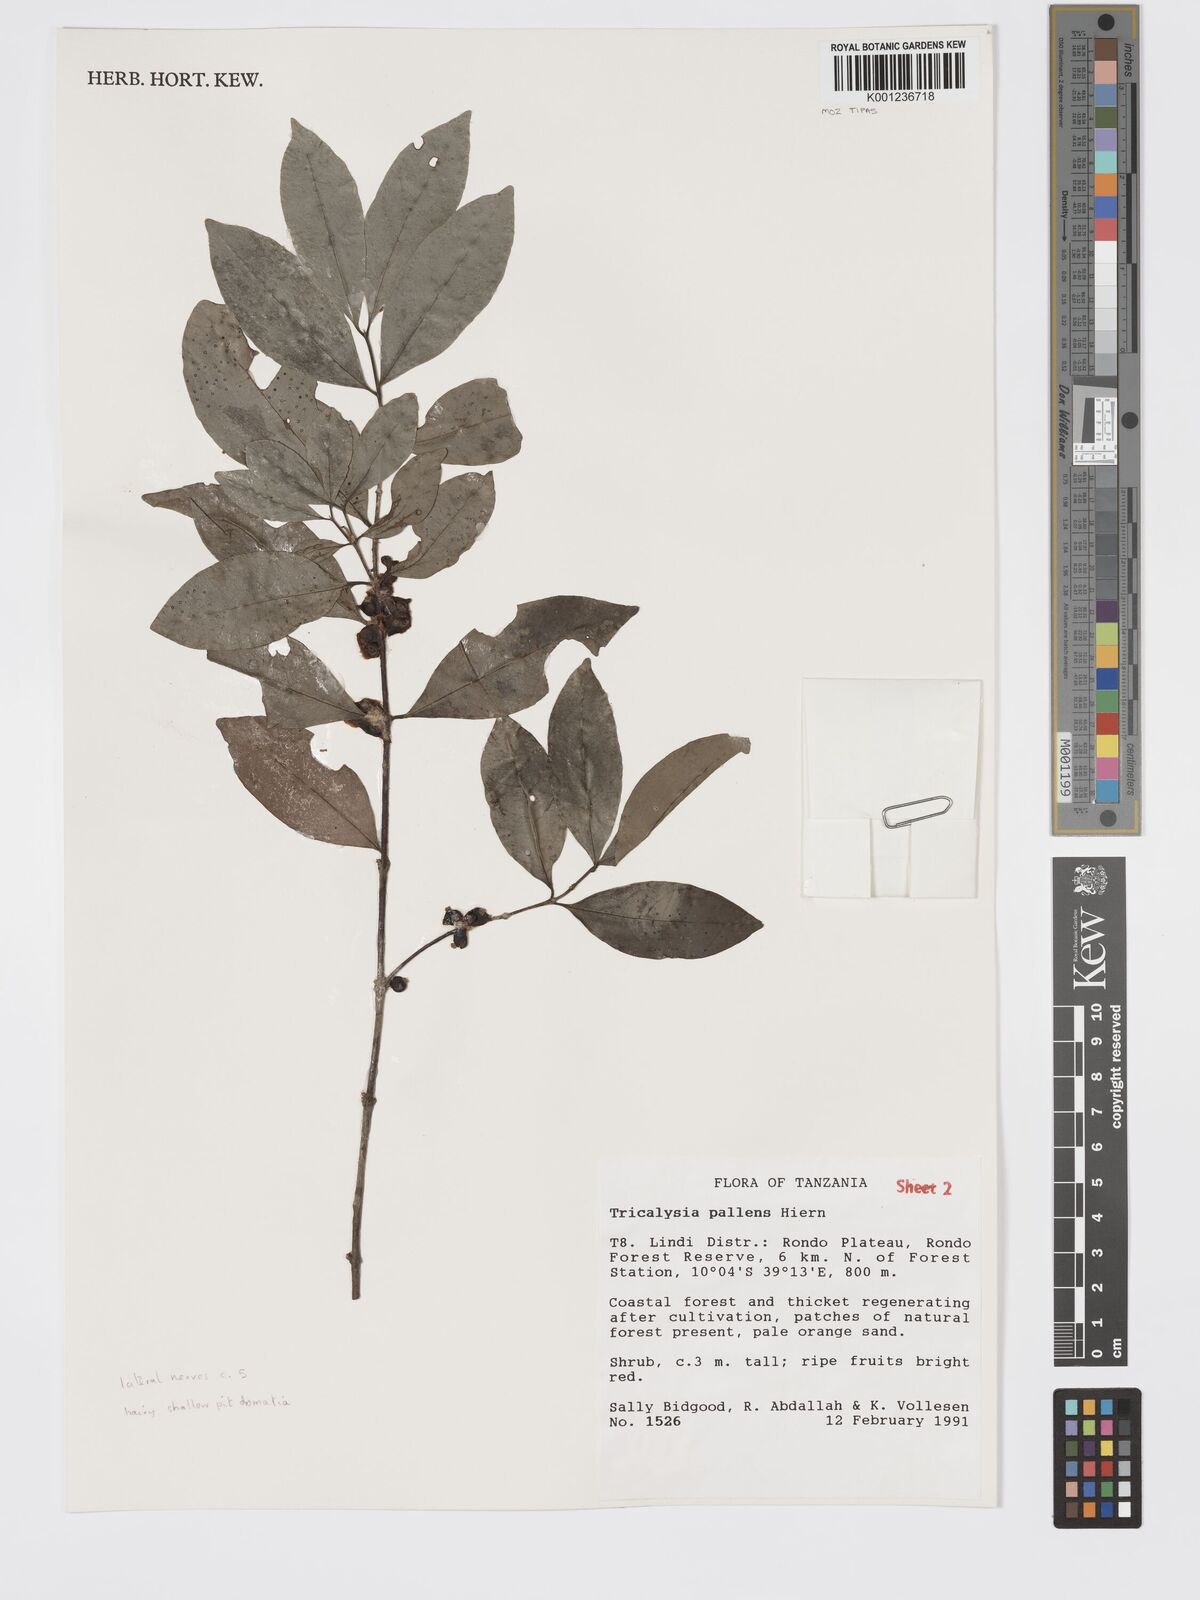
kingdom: Plantae
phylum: Tracheophyta
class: Magnoliopsida
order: Gentianales
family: Rubiaceae
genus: Tricalysia
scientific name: Tricalysia pallens
